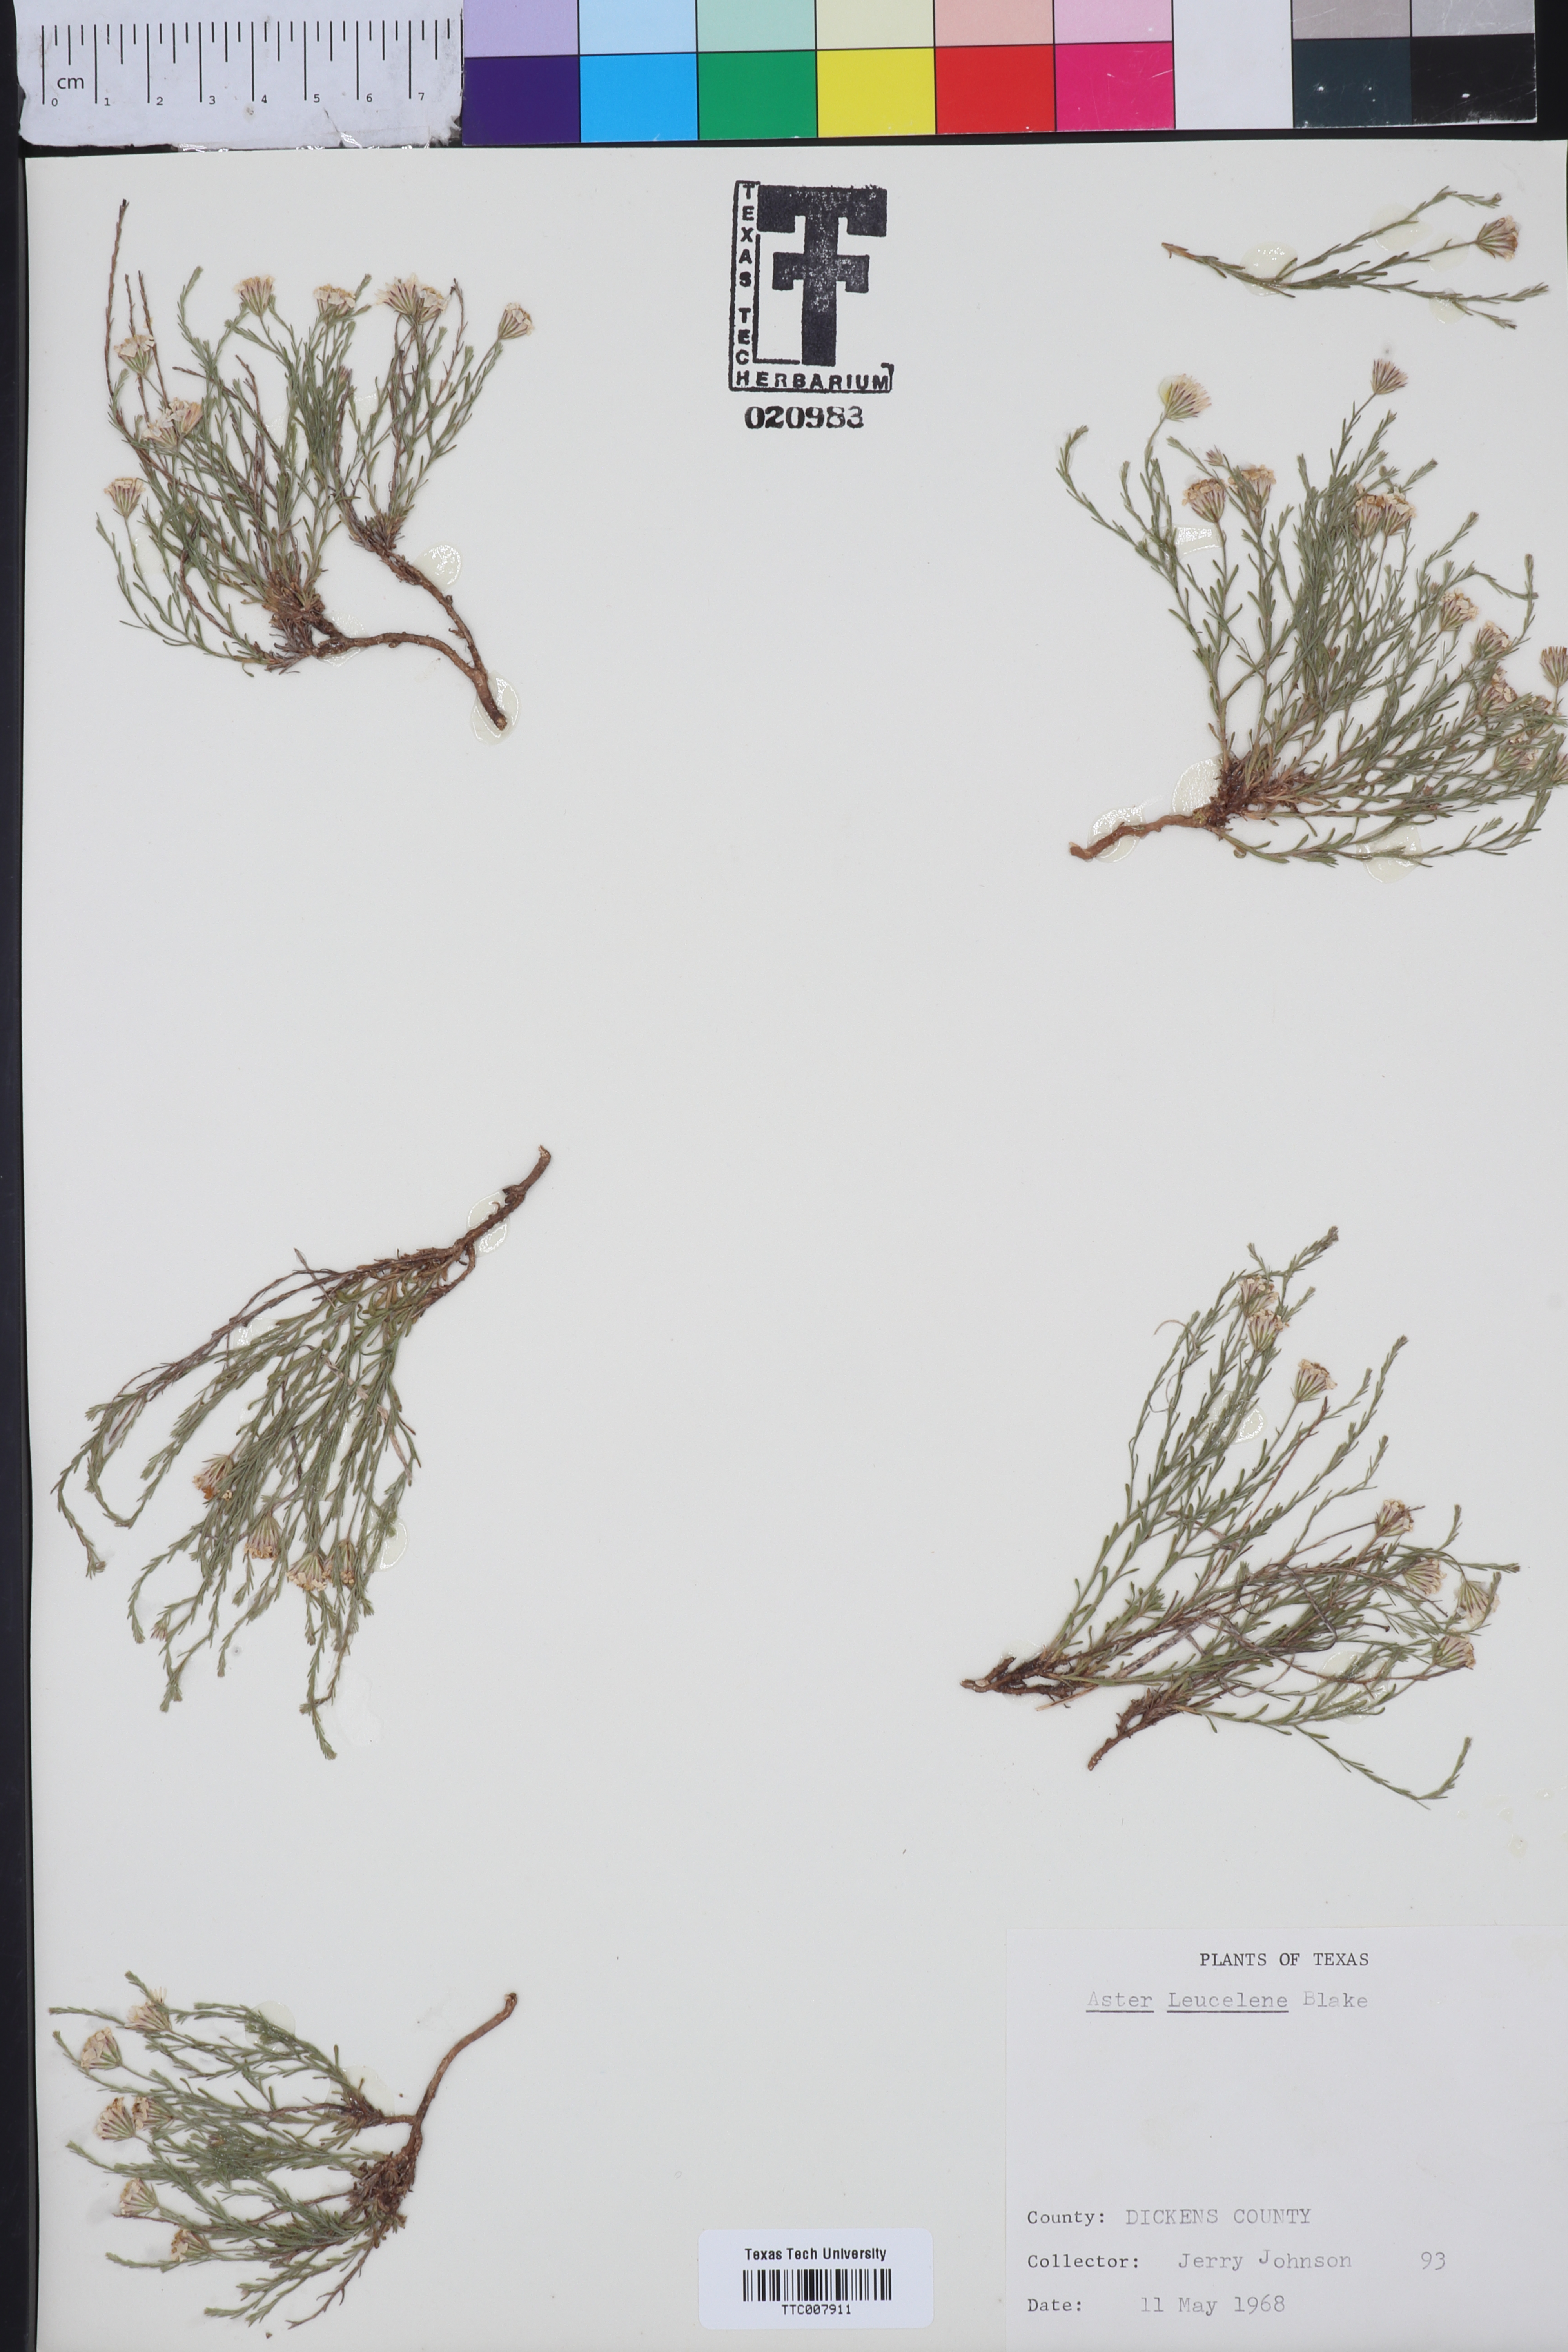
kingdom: Plantae
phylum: Tracheophyta
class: Magnoliopsida
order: Asterales
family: Asteraceae
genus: Chaetopappa
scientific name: Chaetopappa ericoides
